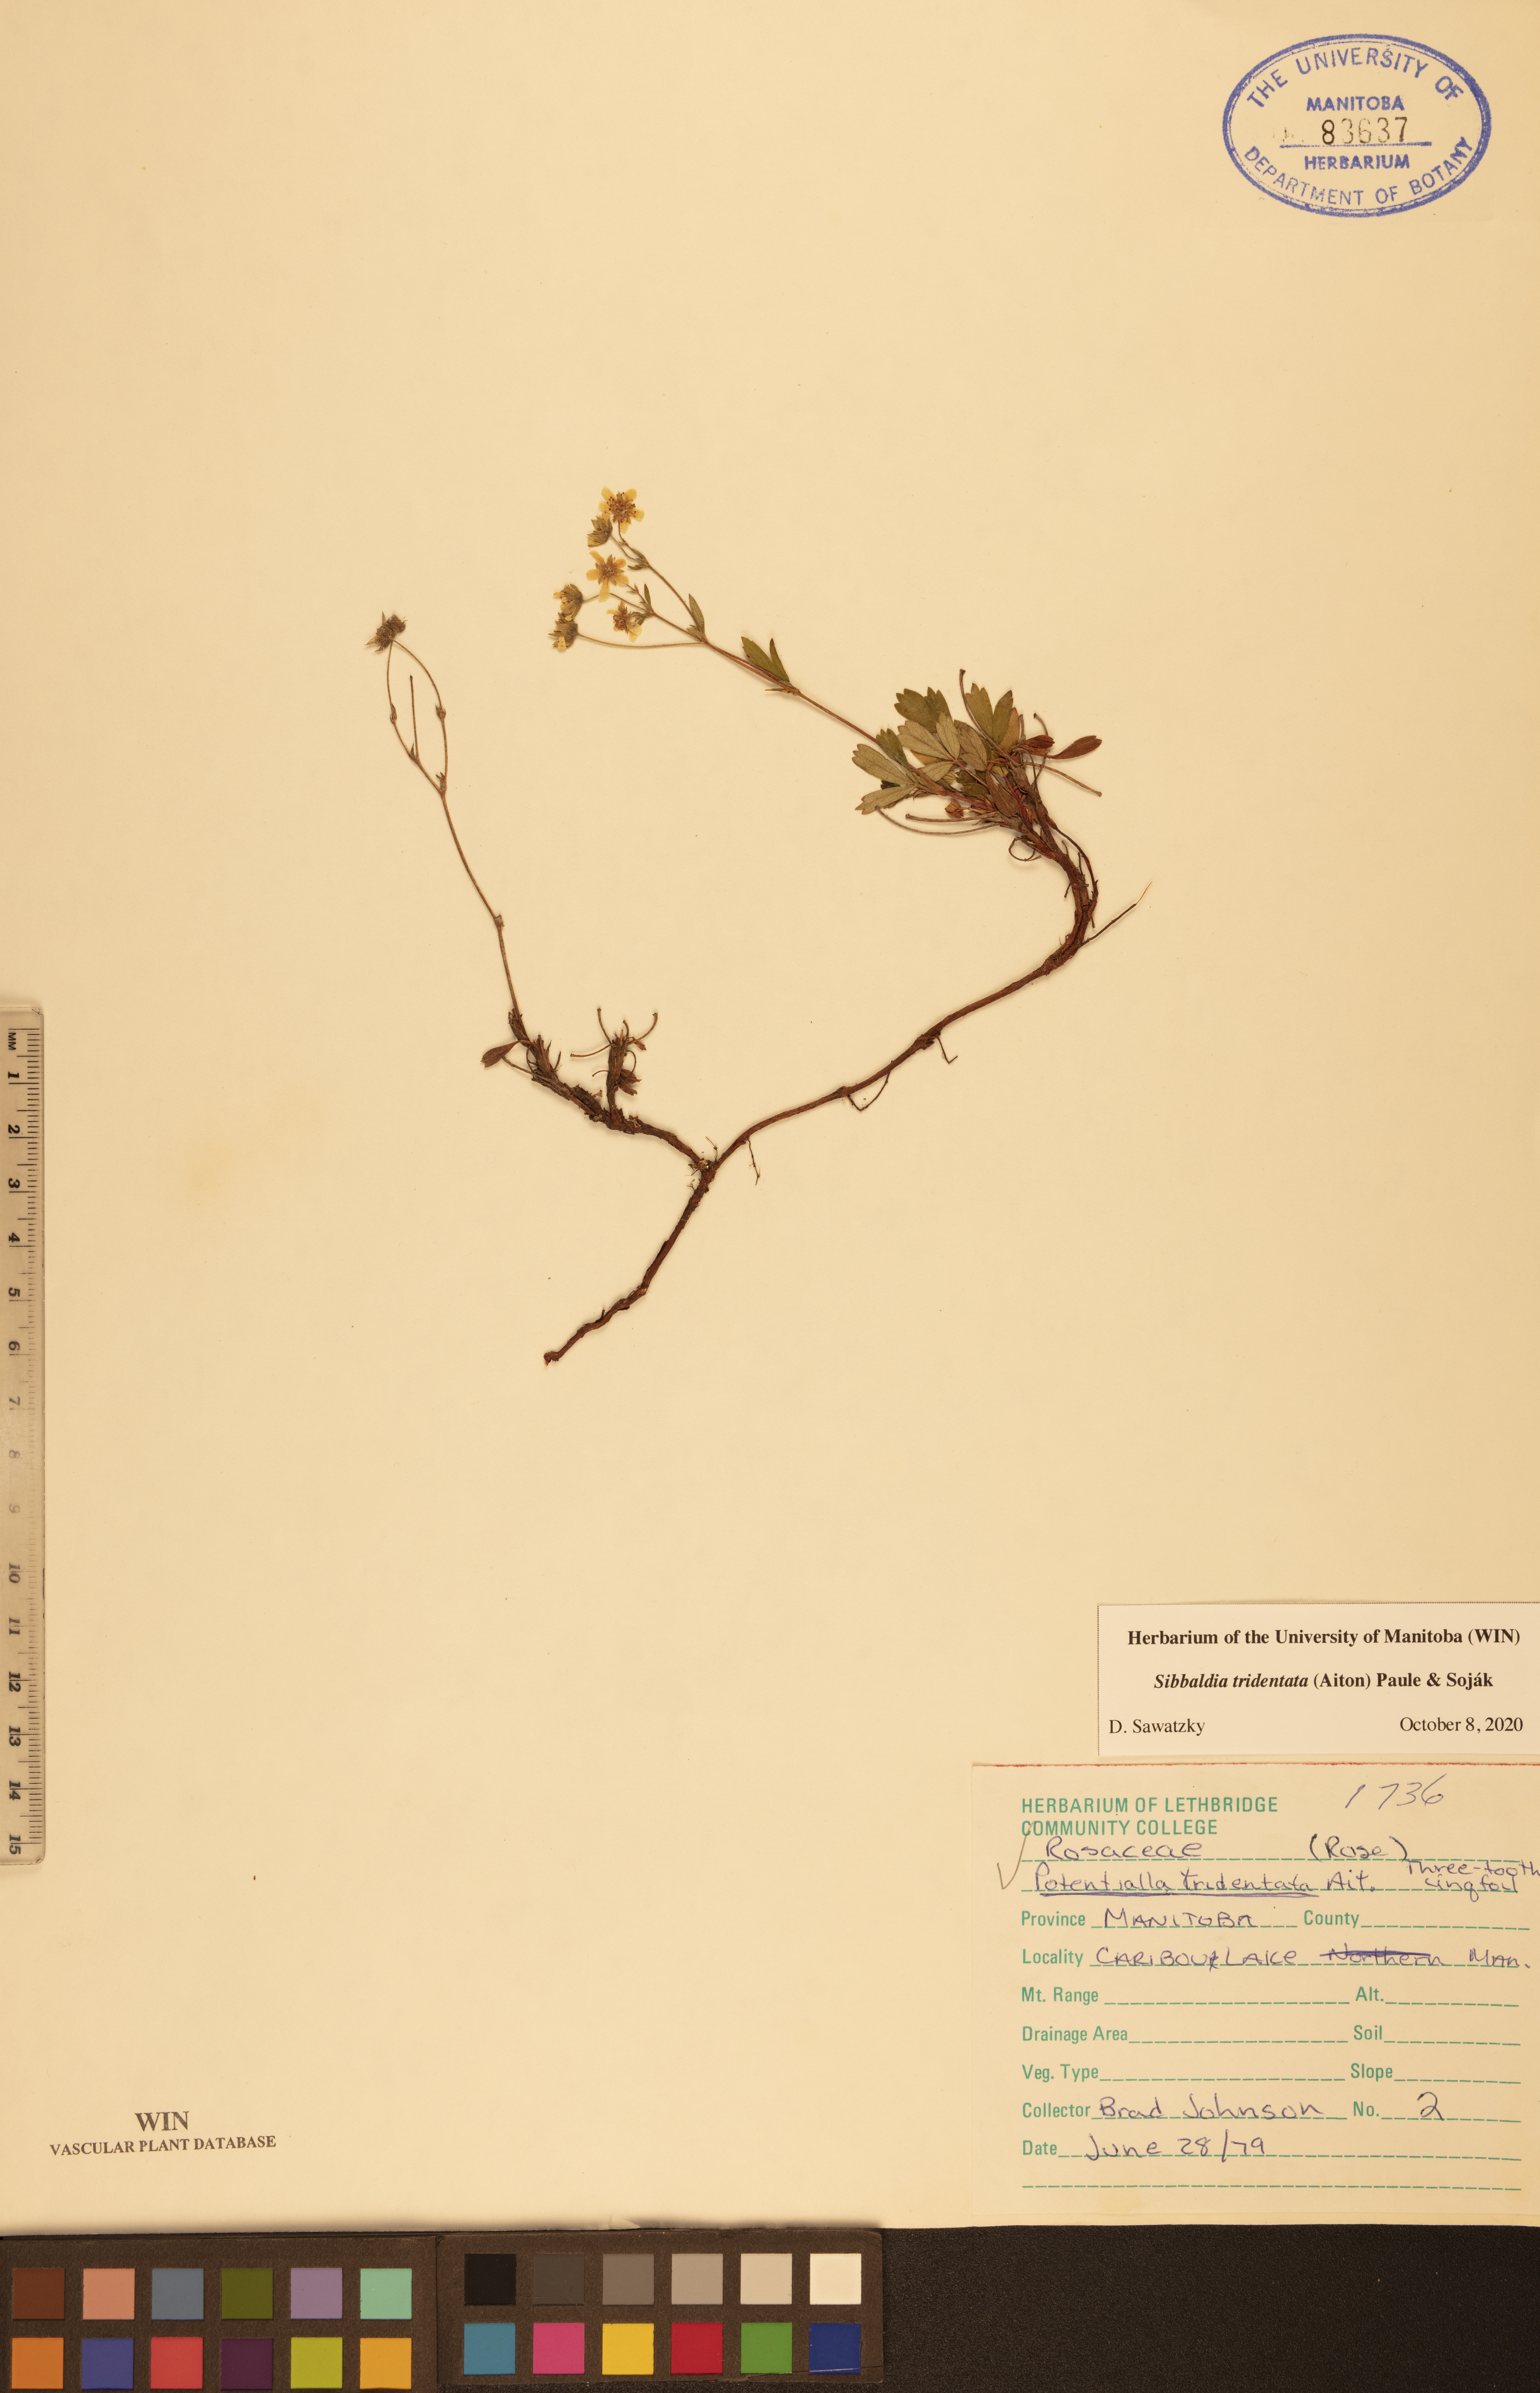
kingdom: Plantae
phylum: Tracheophyta
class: Magnoliopsida
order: Rosales
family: Rosaceae
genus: Sibbaldia
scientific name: Sibbaldia tridentata
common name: Three-toothed cinquefoil
